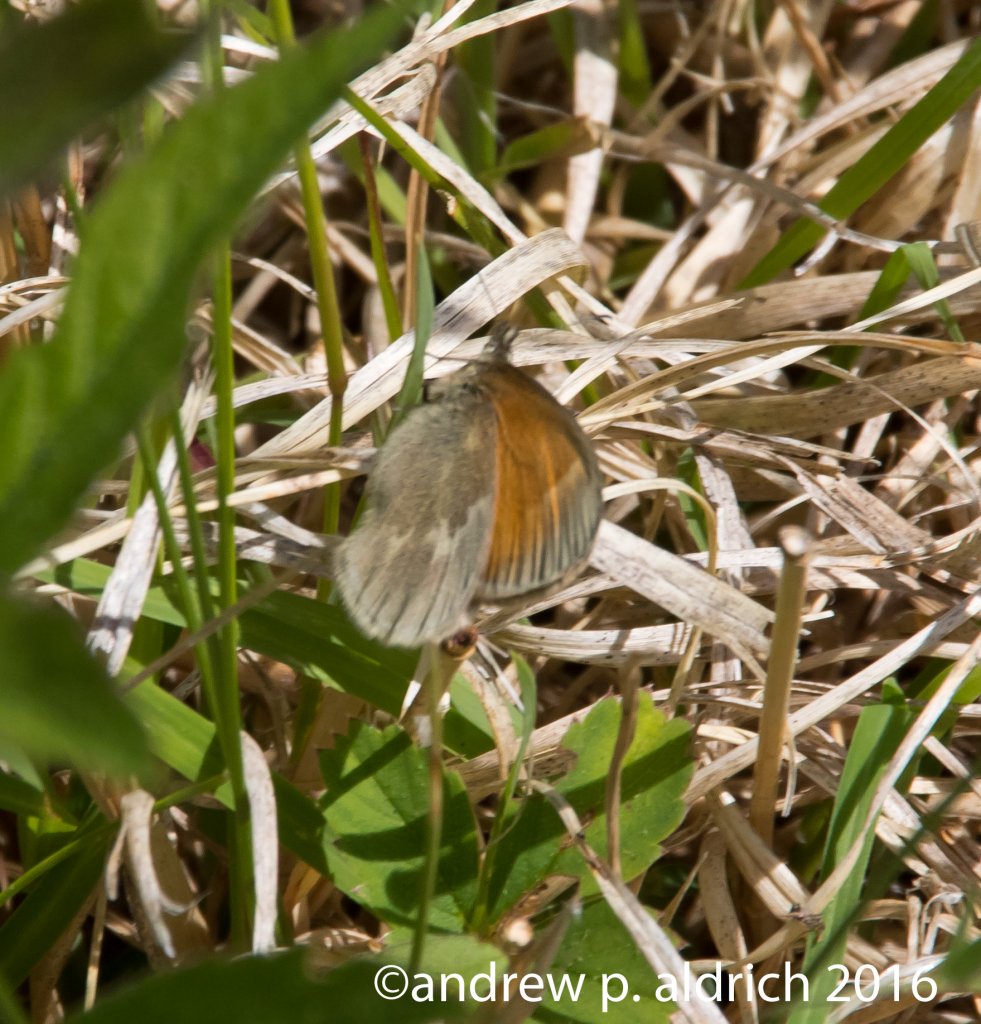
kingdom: Animalia
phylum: Arthropoda
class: Insecta
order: Lepidoptera
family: Nymphalidae
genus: Coenonympha
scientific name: Coenonympha tullia
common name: Large Heath
